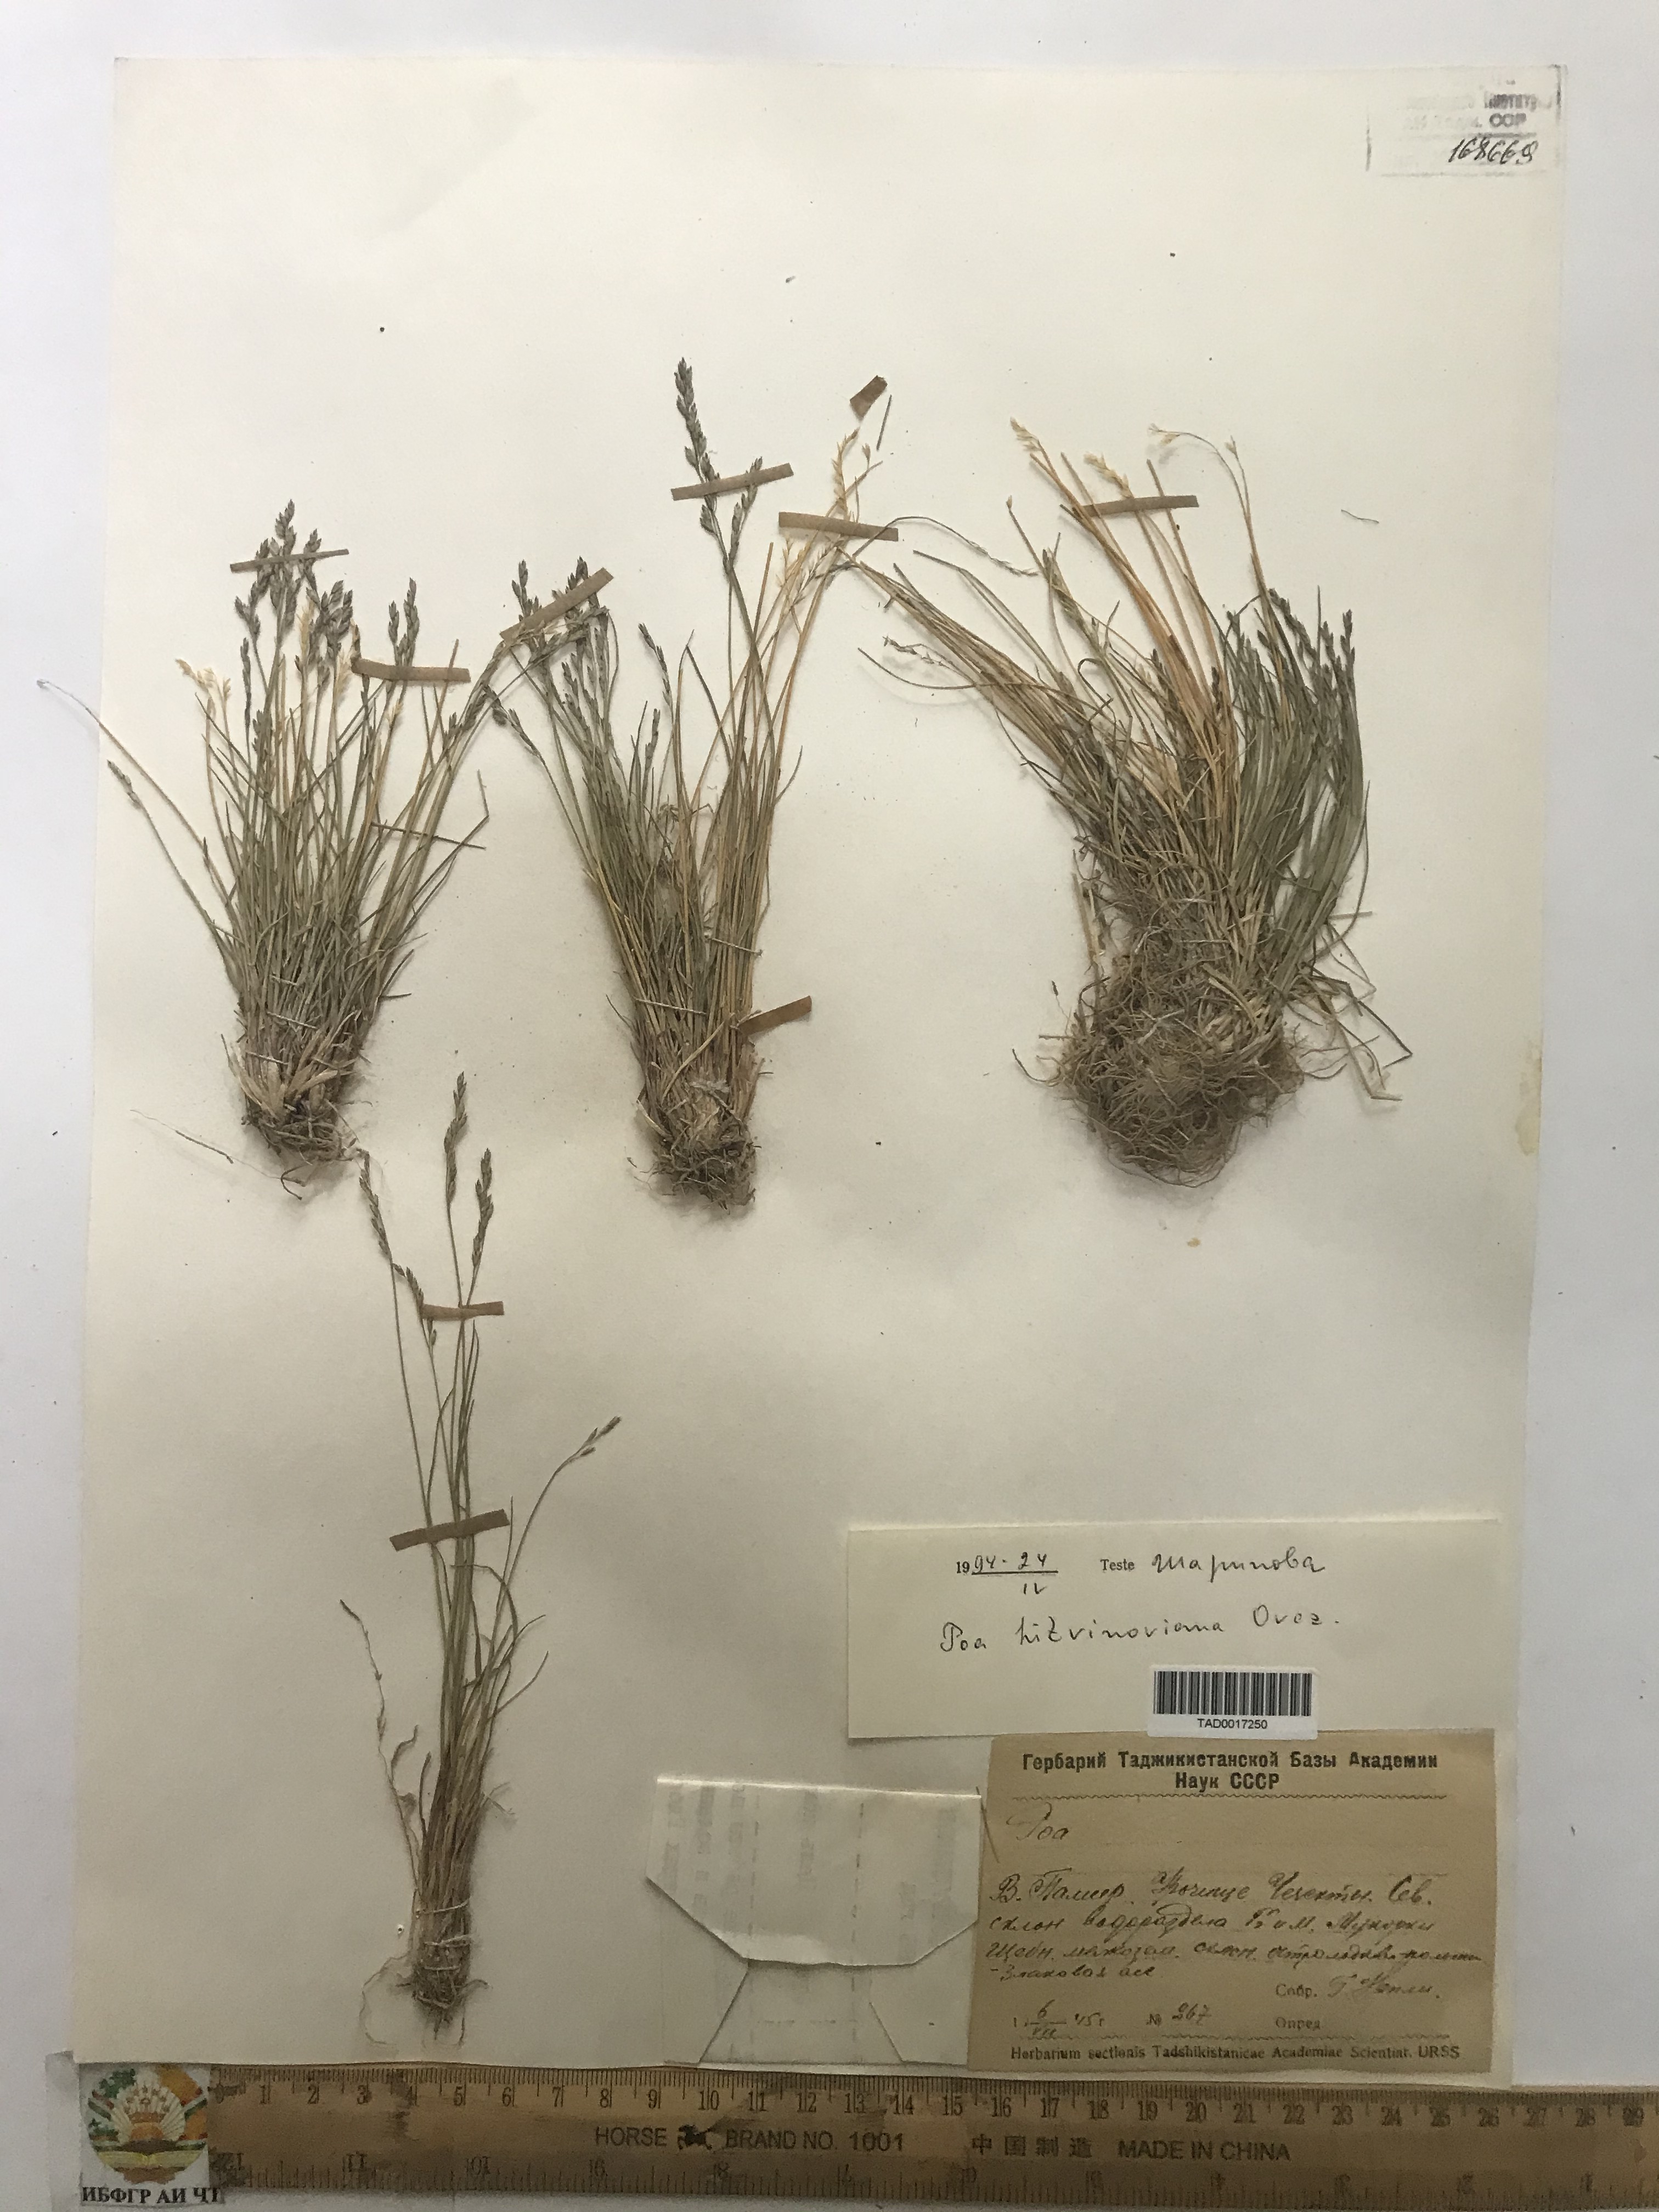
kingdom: Plantae
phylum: Tracheophyta
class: Liliopsida
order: Poales
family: Poaceae
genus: Poa
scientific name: Poa glauca
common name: Glaucous bluegrass
